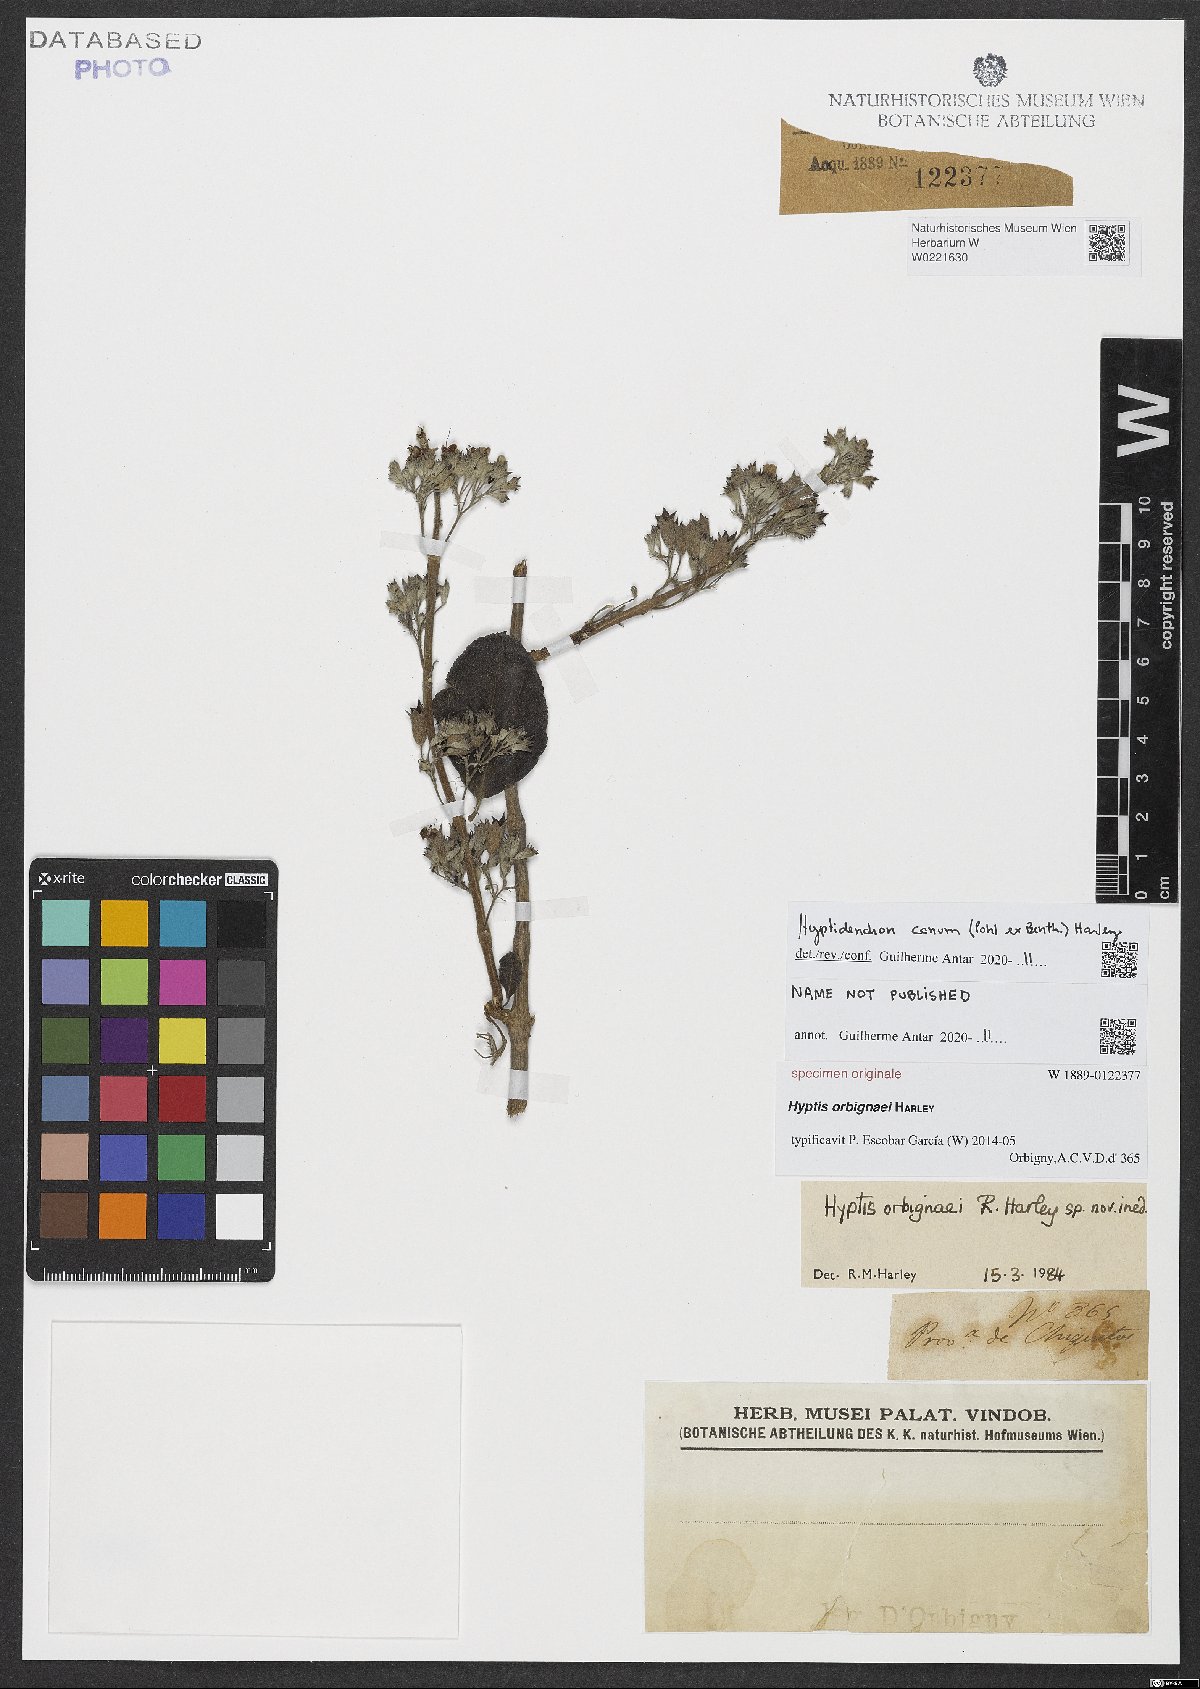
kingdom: Plantae
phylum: Tracheophyta
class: Magnoliopsida
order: Lamiales
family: Lamiaceae
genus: Hyptidendron
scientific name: Hyptidendron canum
